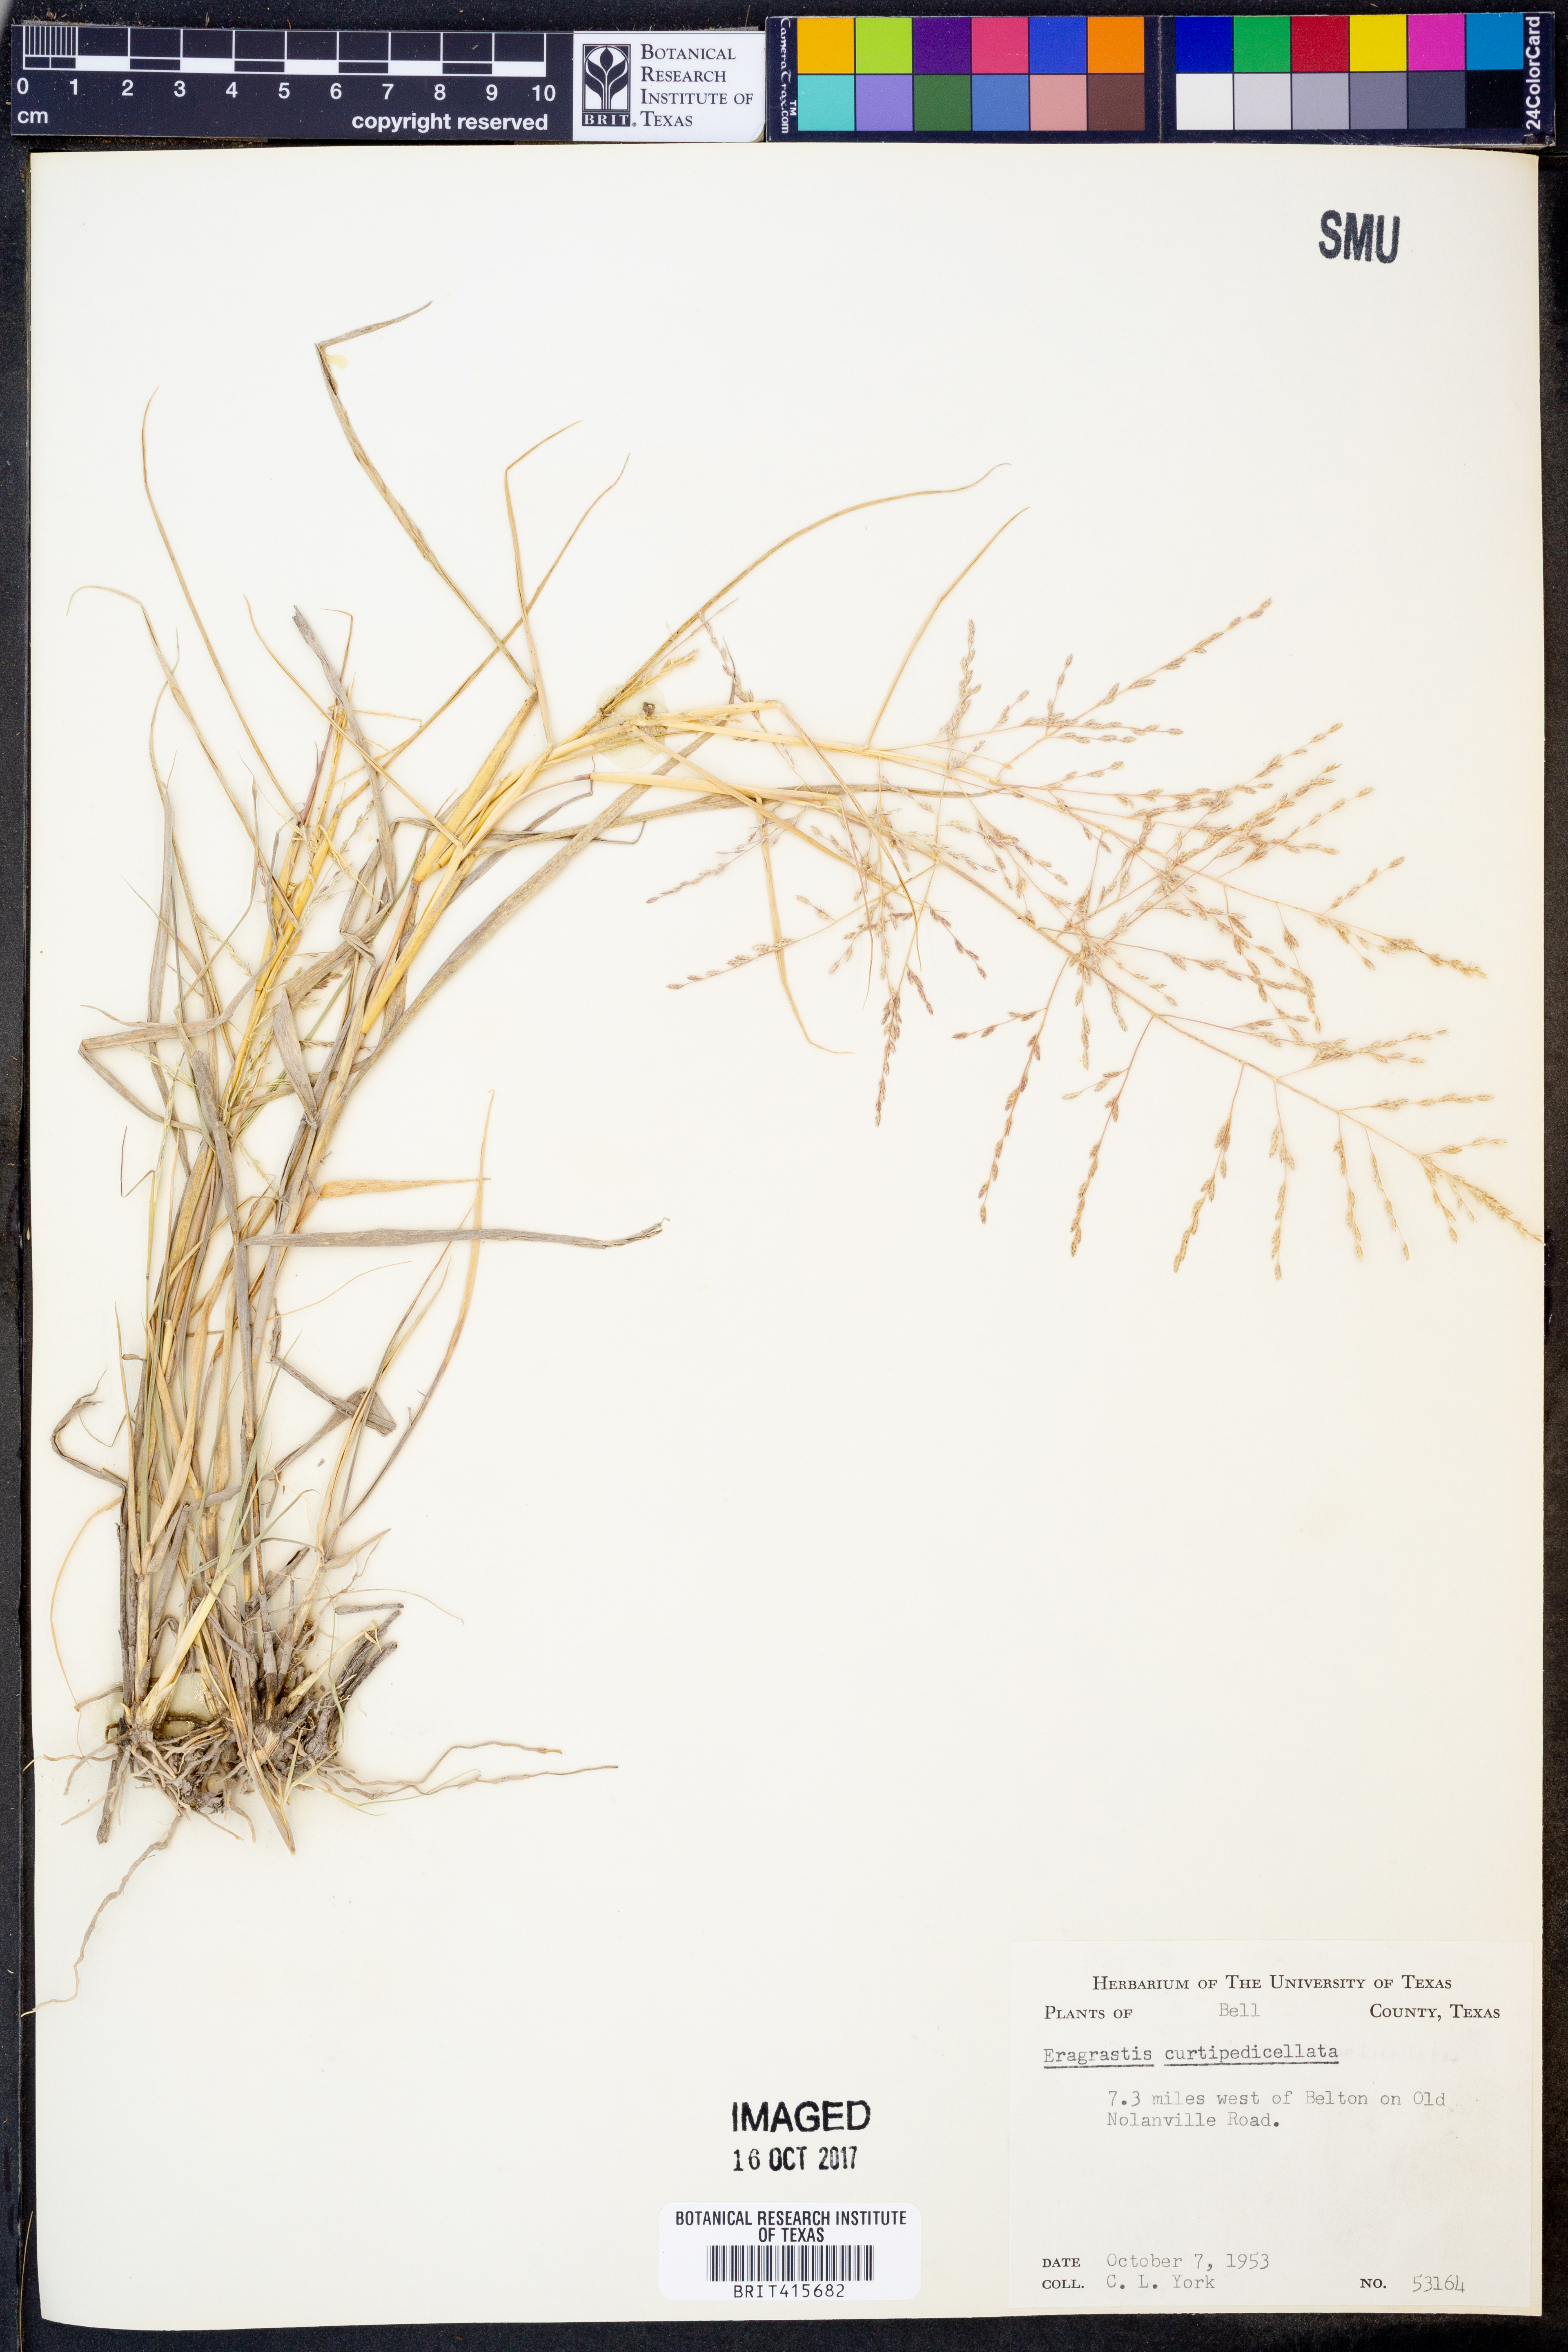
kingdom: Plantae
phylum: Tracheophyta
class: Liliopsida
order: Poales
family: Poaceae
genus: Eragrostis
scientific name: Eragrostis curtipedicellata
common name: Gummy love grass
